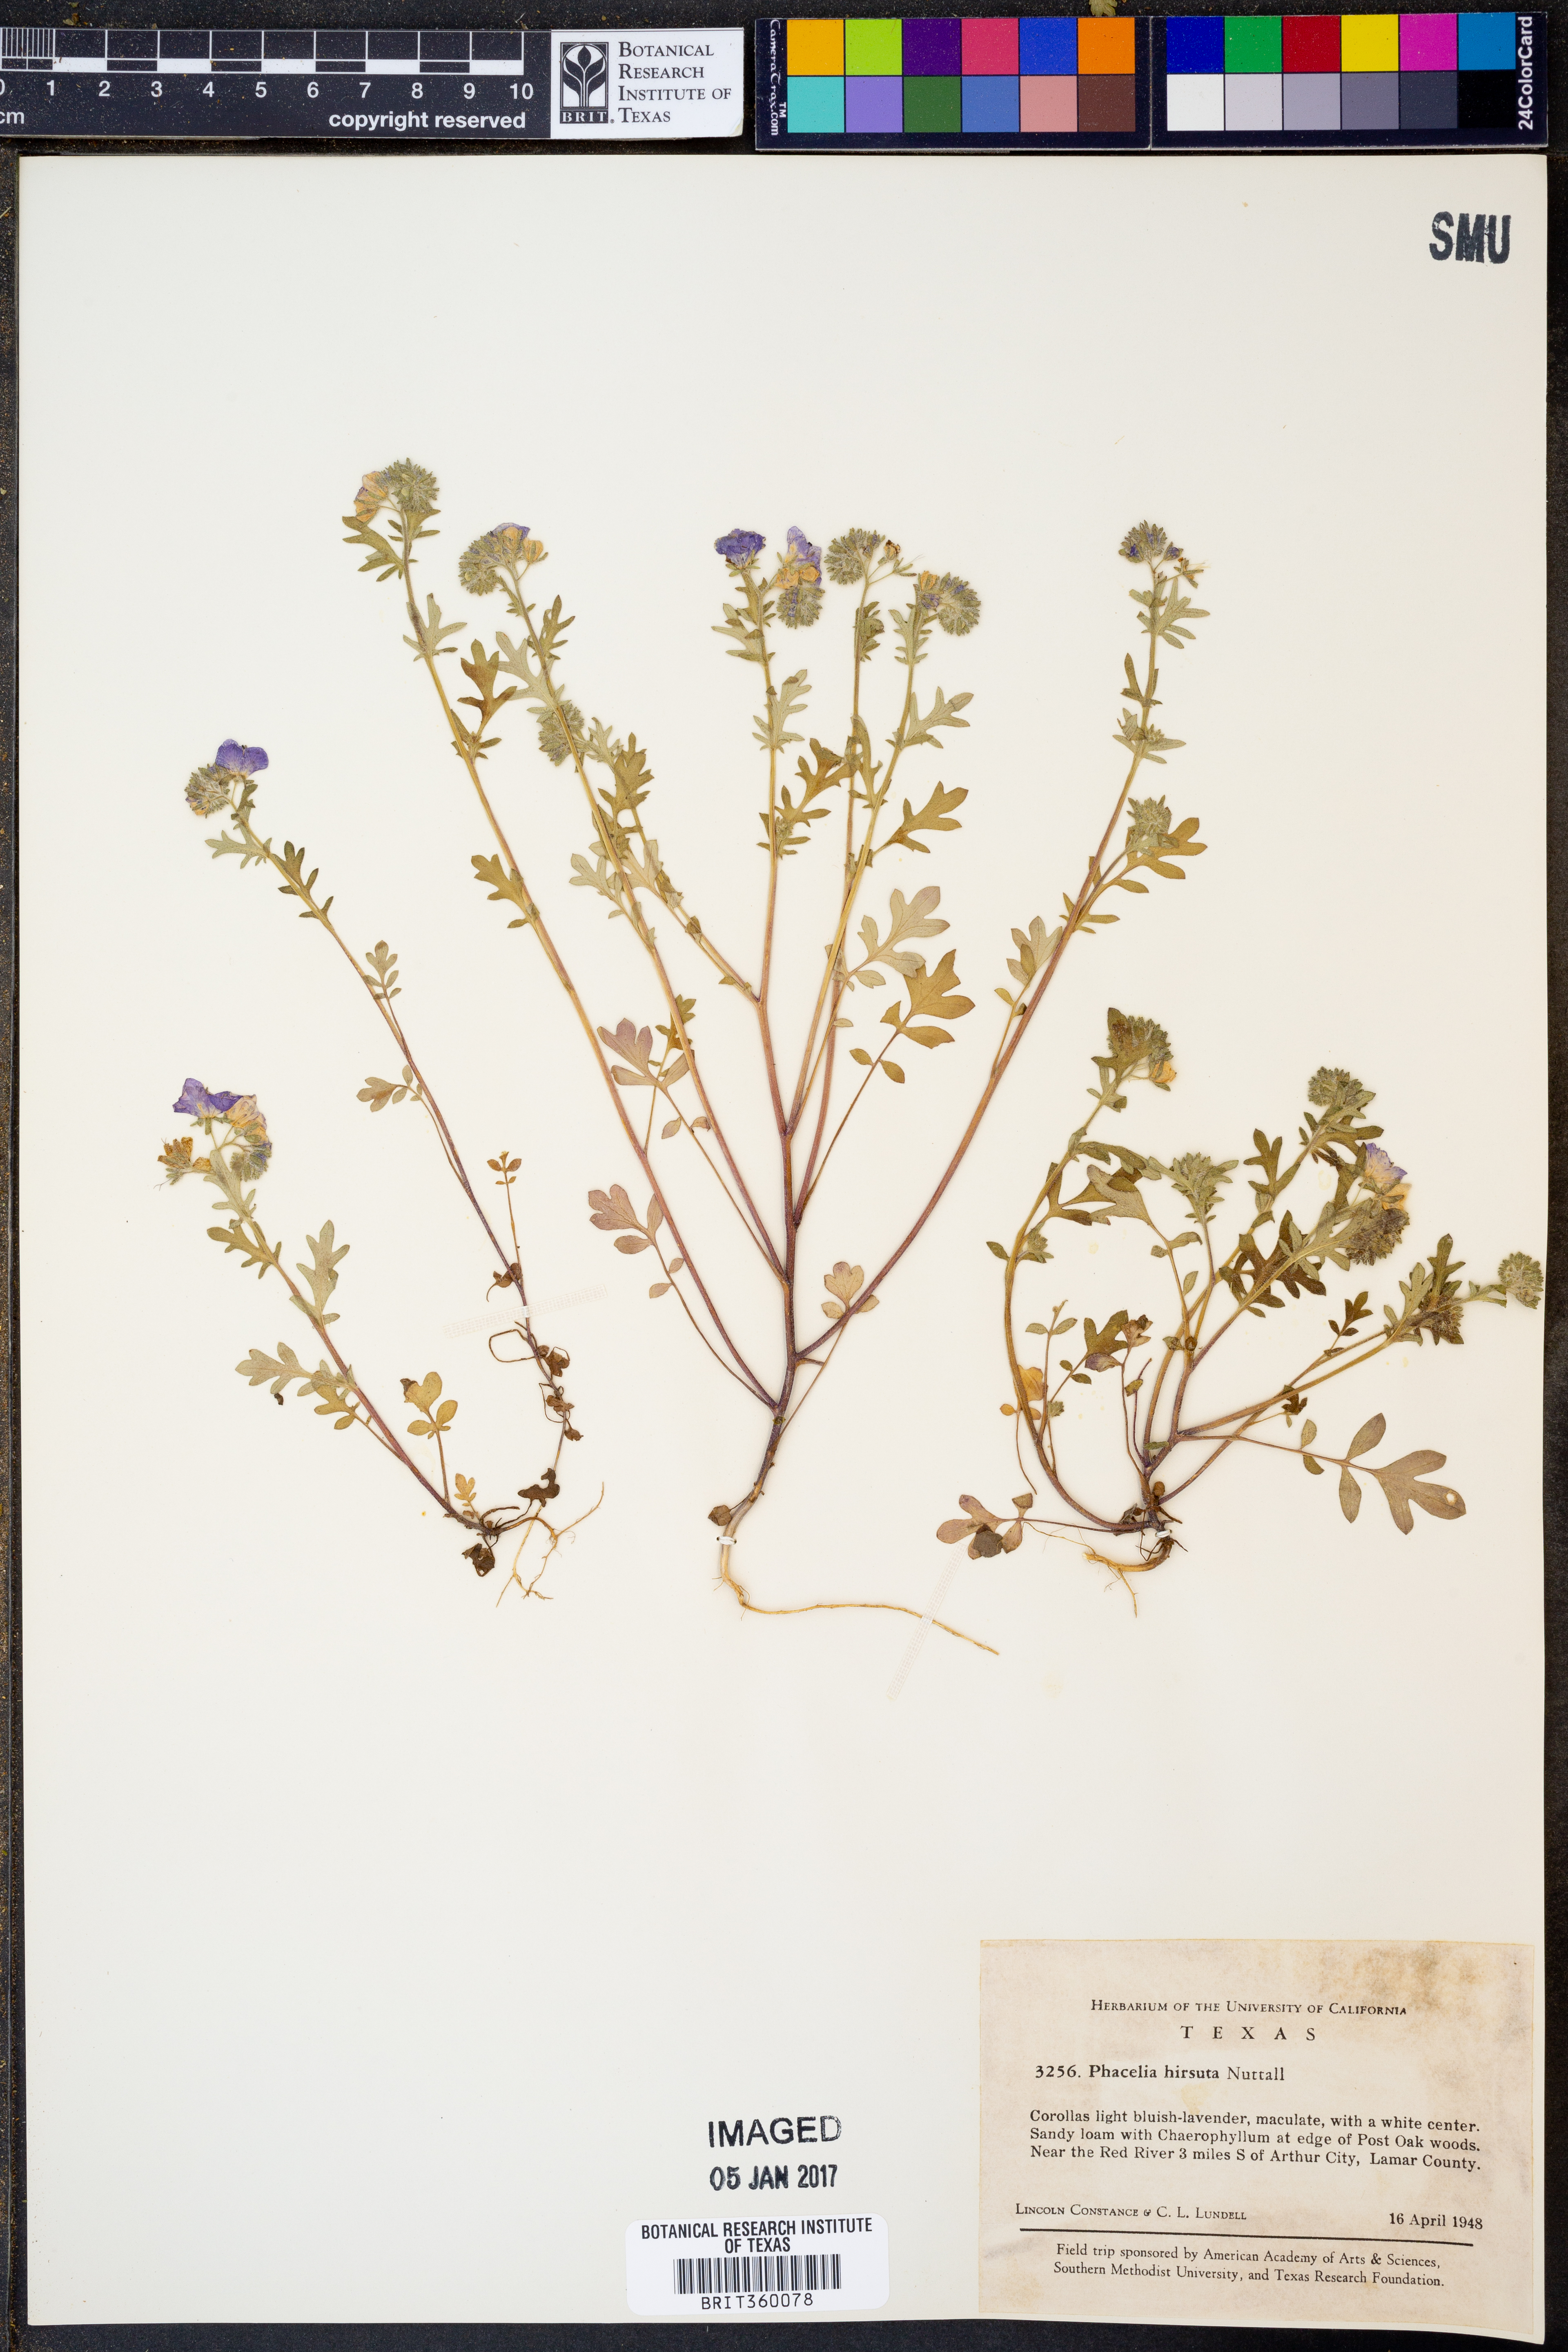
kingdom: Plantae
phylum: Tracheophyta
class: Magnoliopsida
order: Boraginales
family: Hydrophyllaceae
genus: Phacelia
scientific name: Phacelia hirsuta
